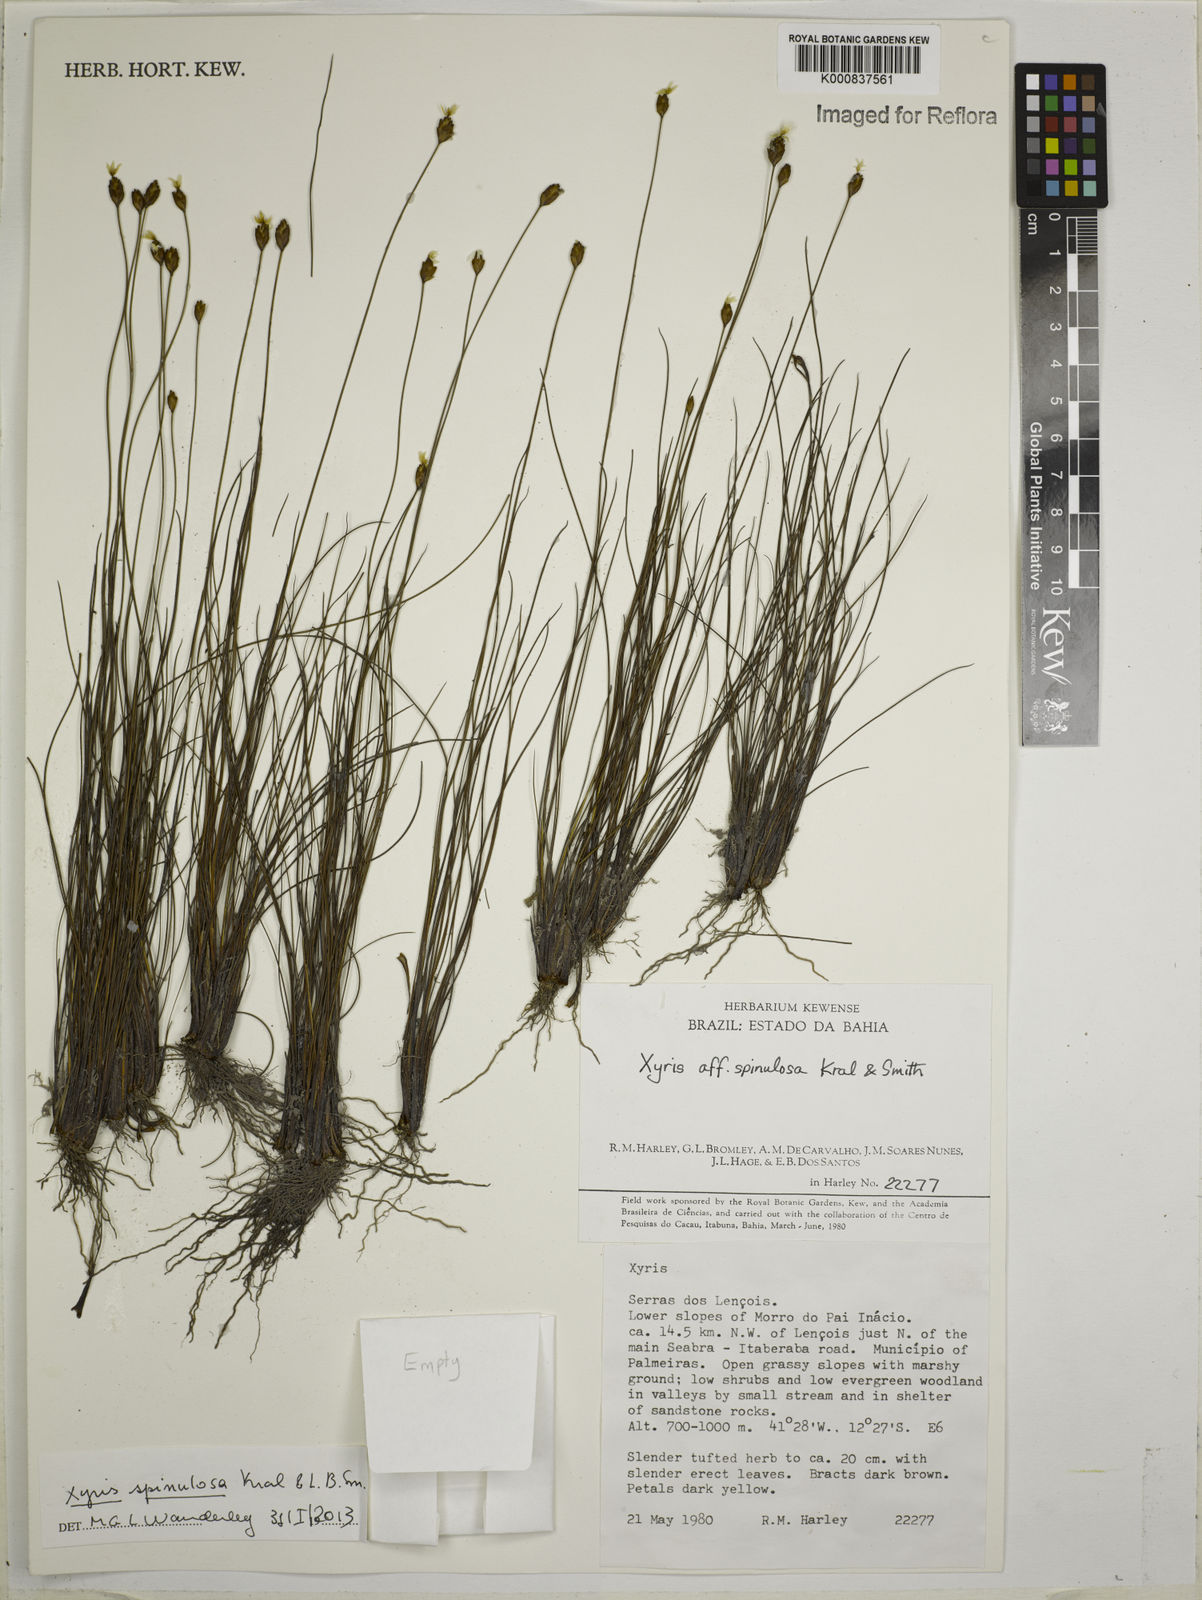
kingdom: Plantae
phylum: Tracheophyta
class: Liliopsida
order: Poales
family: Xyridaceae
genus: Xyris
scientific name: Xyris spinulosa
